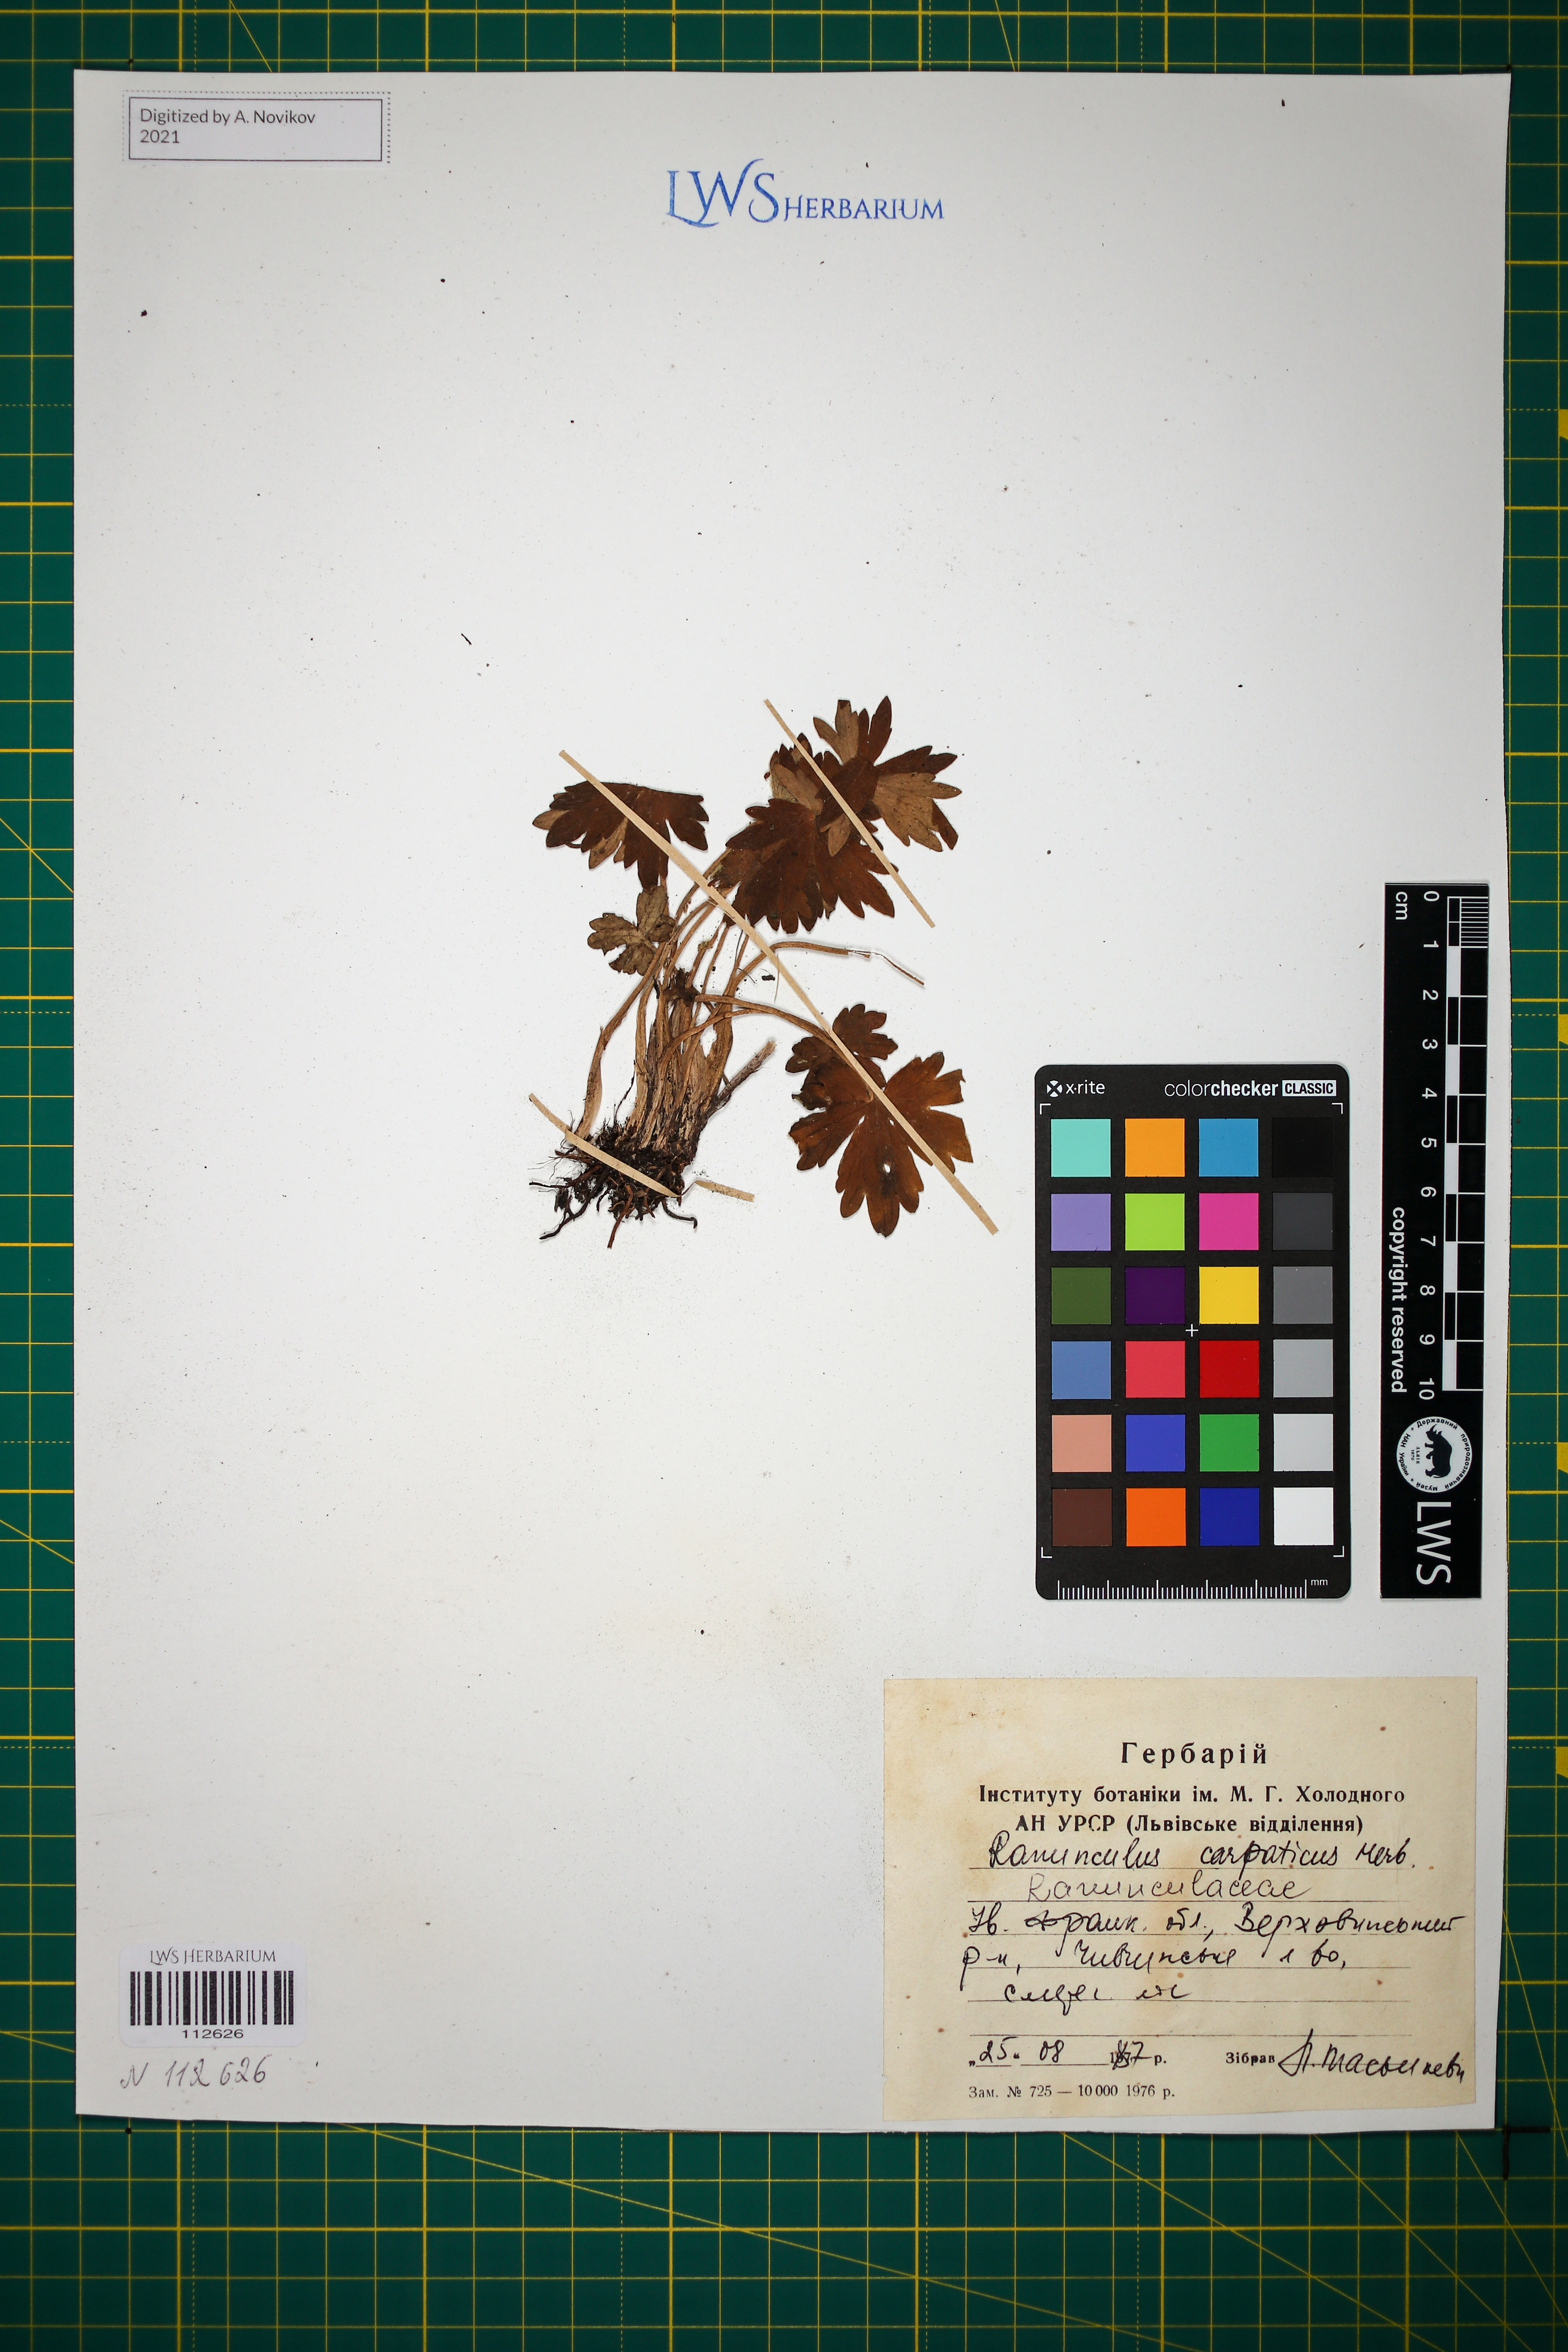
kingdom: Plantae
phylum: Tracheophyta
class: Magnoliopsida
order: Ranunculales
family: Ranunculaceae
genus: Ranunculus
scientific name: Ranunculus carpaticus
